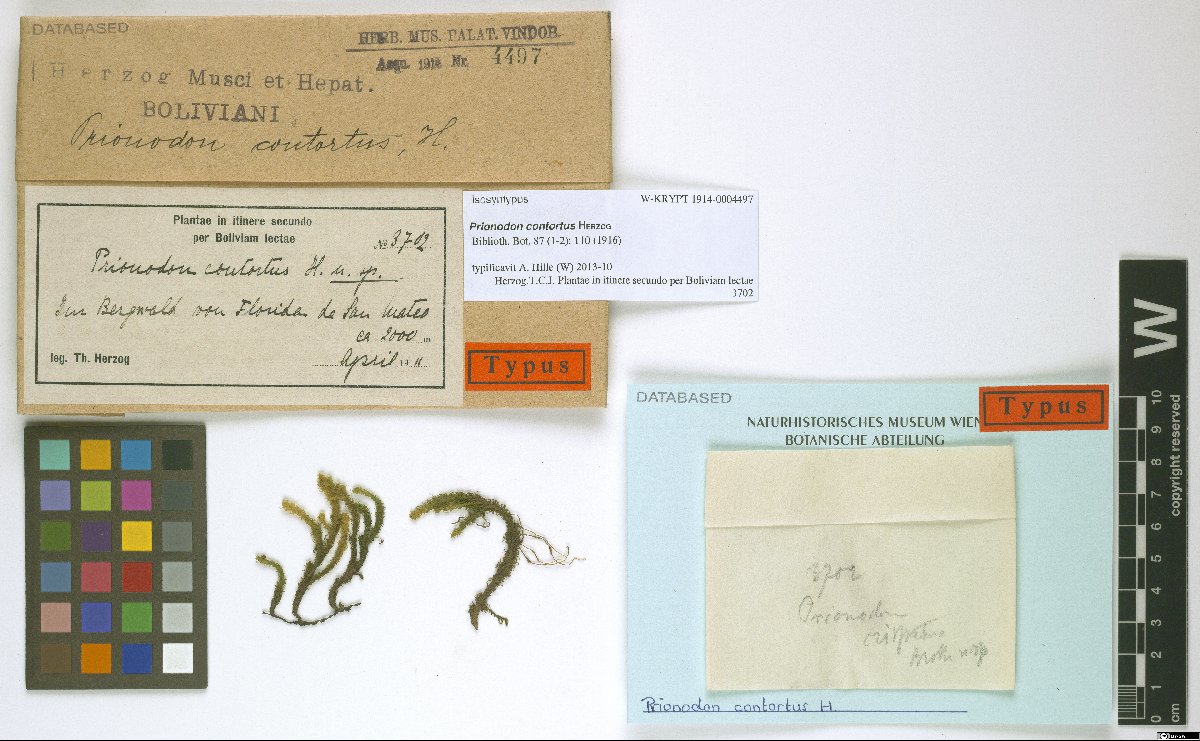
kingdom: Plantae
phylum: Bryophyta
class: Bryopsida
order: Hypnales
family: Prionodontaceae
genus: Prionodon
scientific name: Prionodon densus
